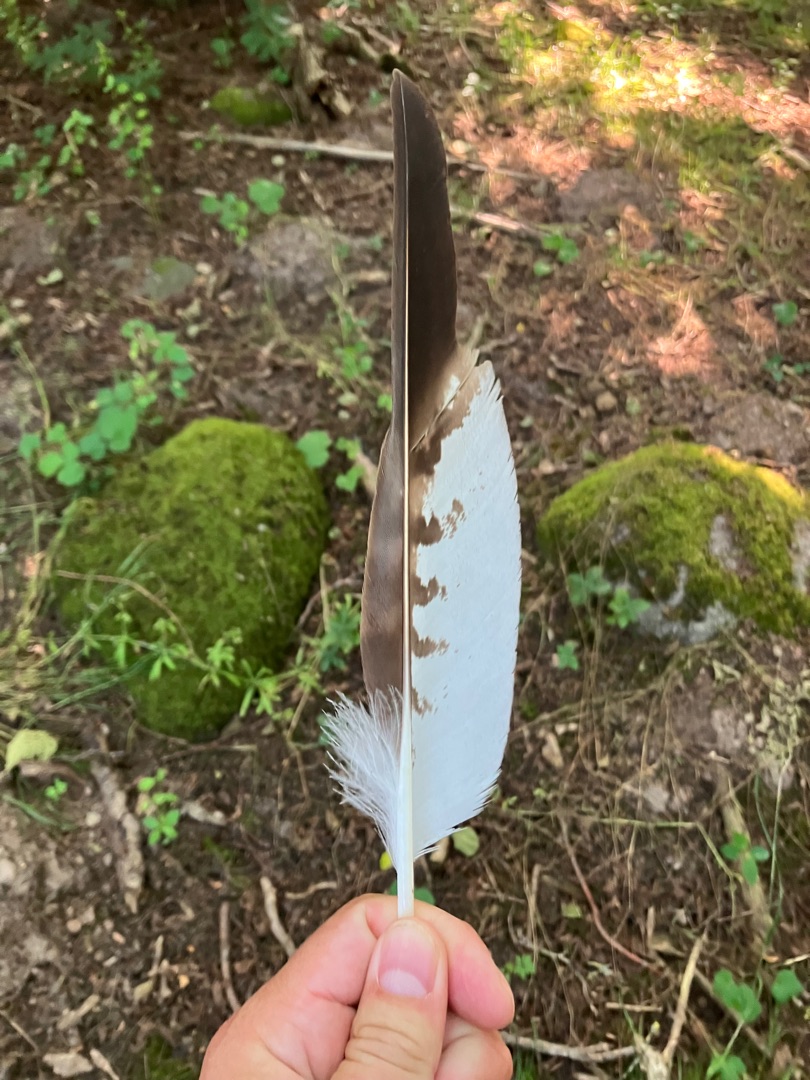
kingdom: Animalia
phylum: Chordata
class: Aves
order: Accipitriformes
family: Accipitridae
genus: Buteo
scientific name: Buteo buteo
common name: Musvåge
